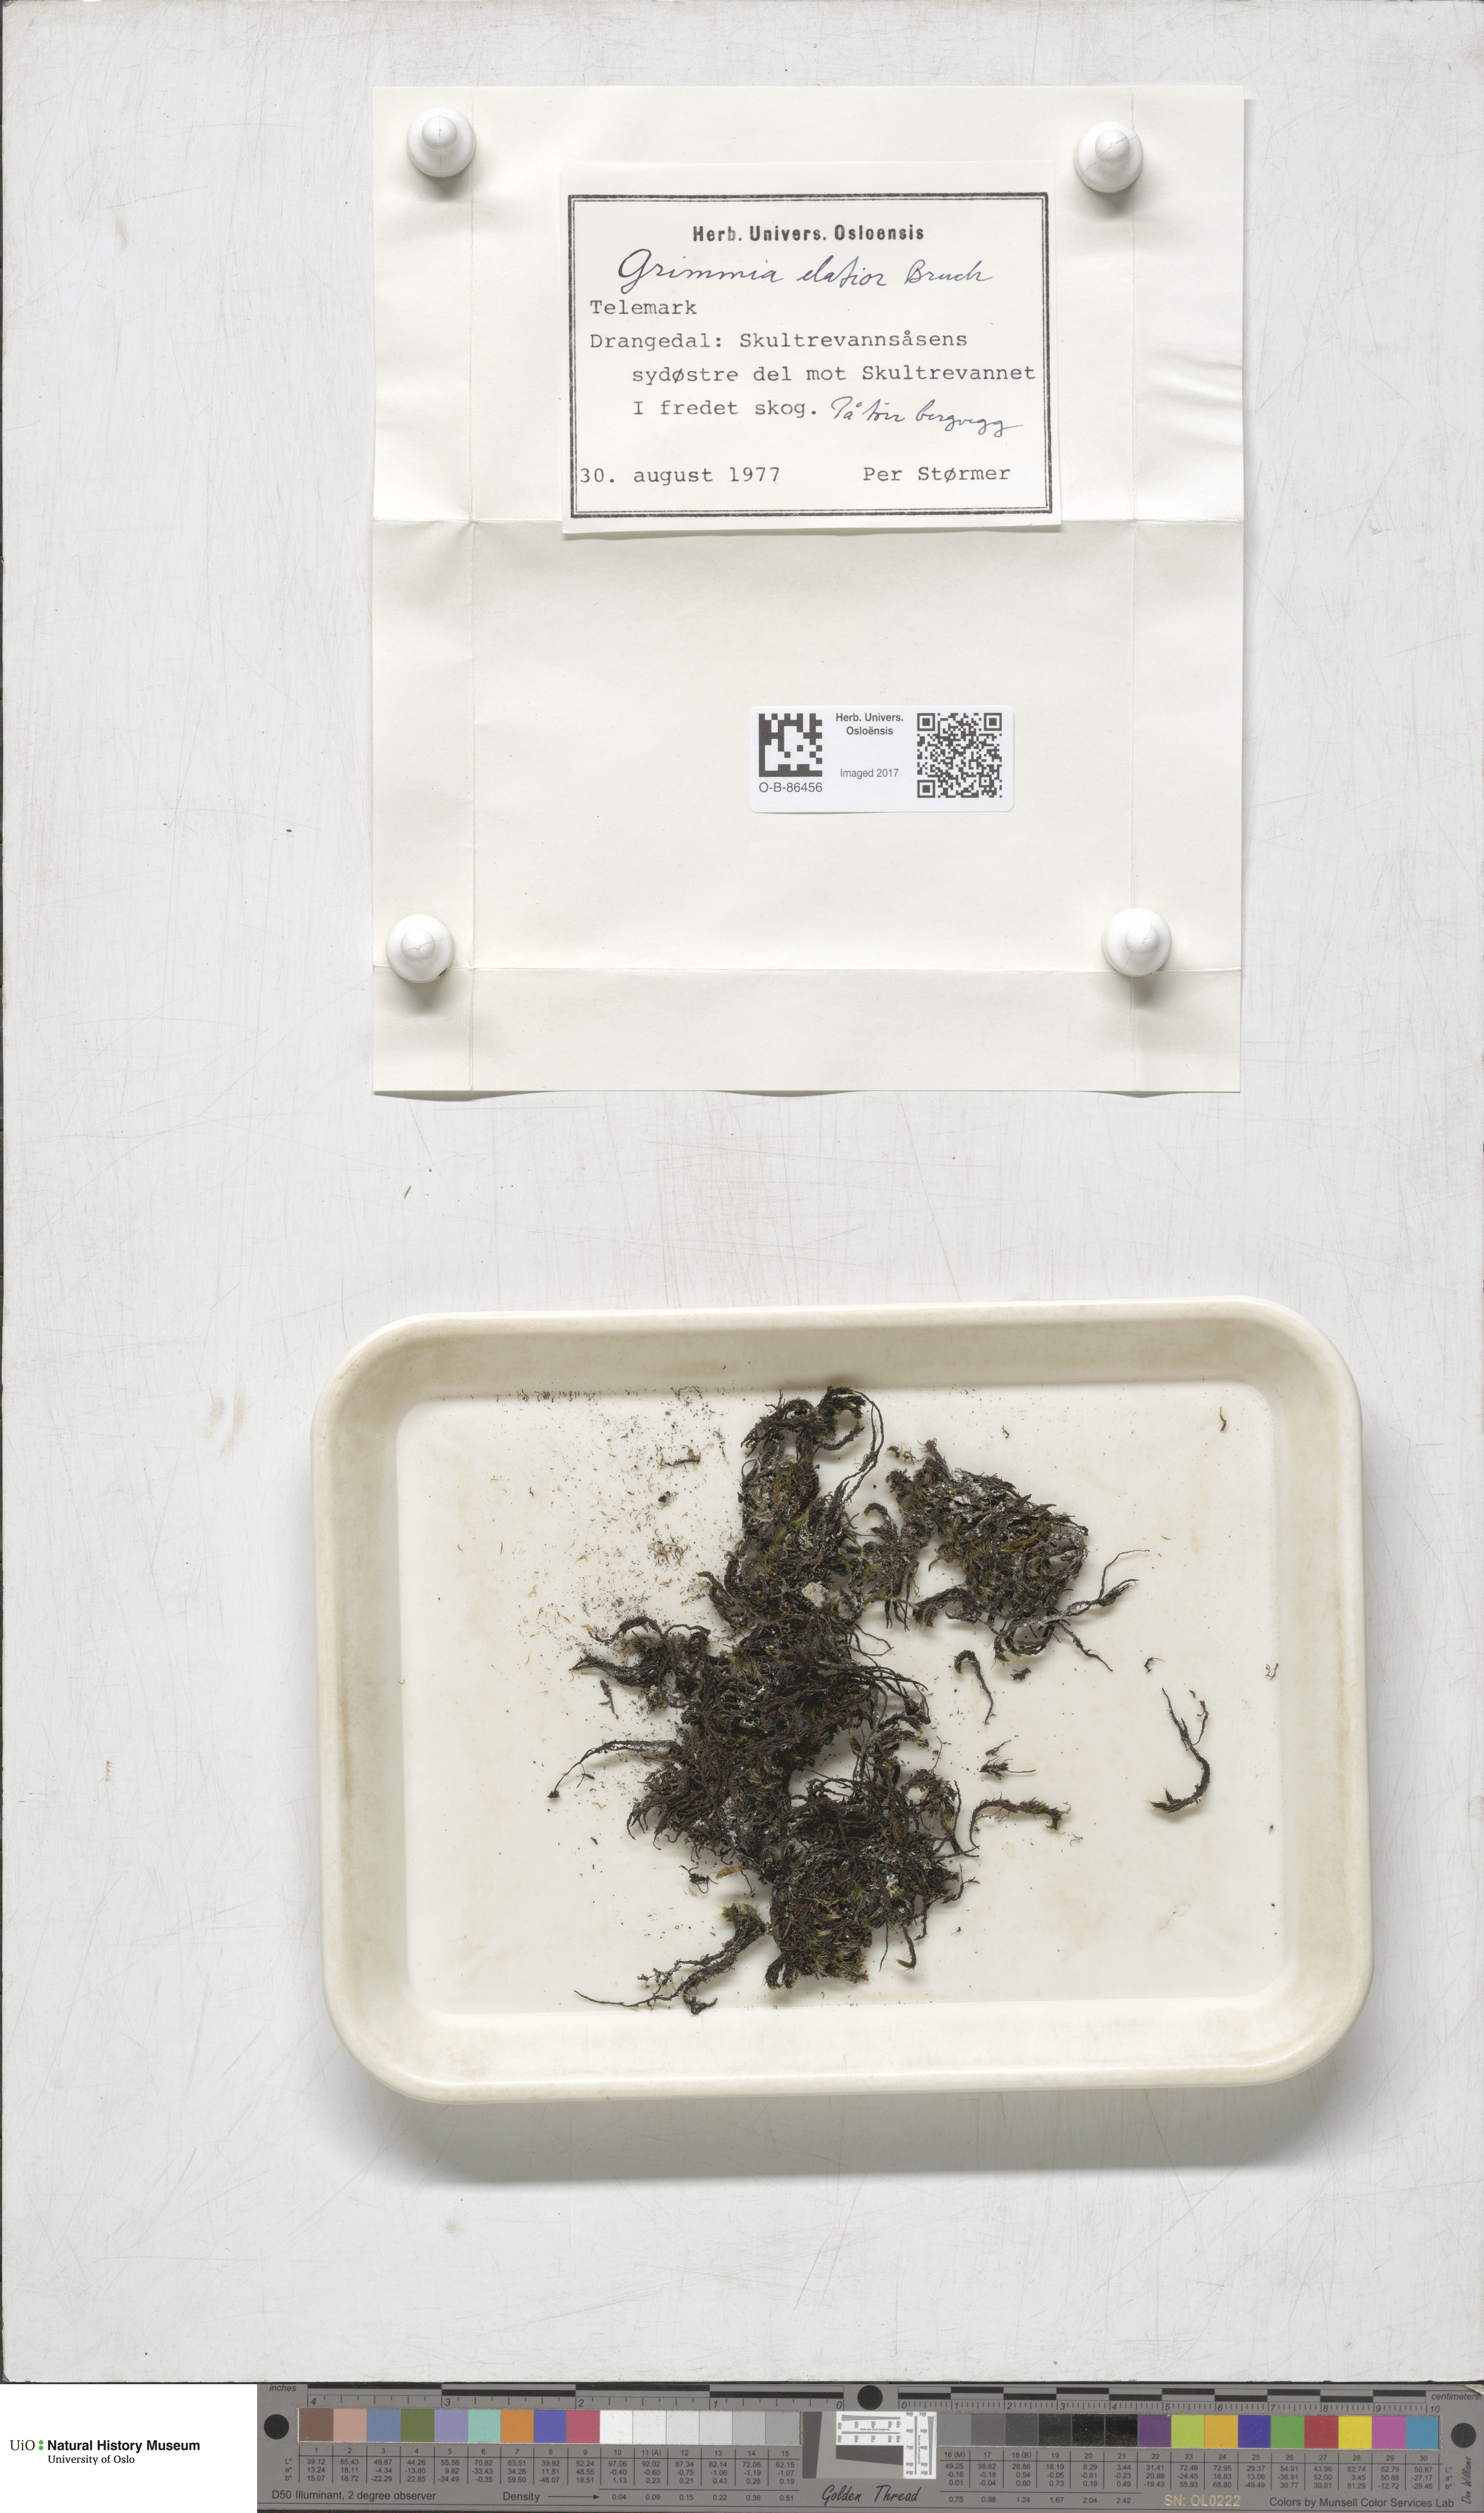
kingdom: Plantae
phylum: Bryophyta
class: Bryopsida
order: Grimmiales
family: Grimmiaceae
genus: Grimmia
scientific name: Grimmia elatior
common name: Large grimmia
